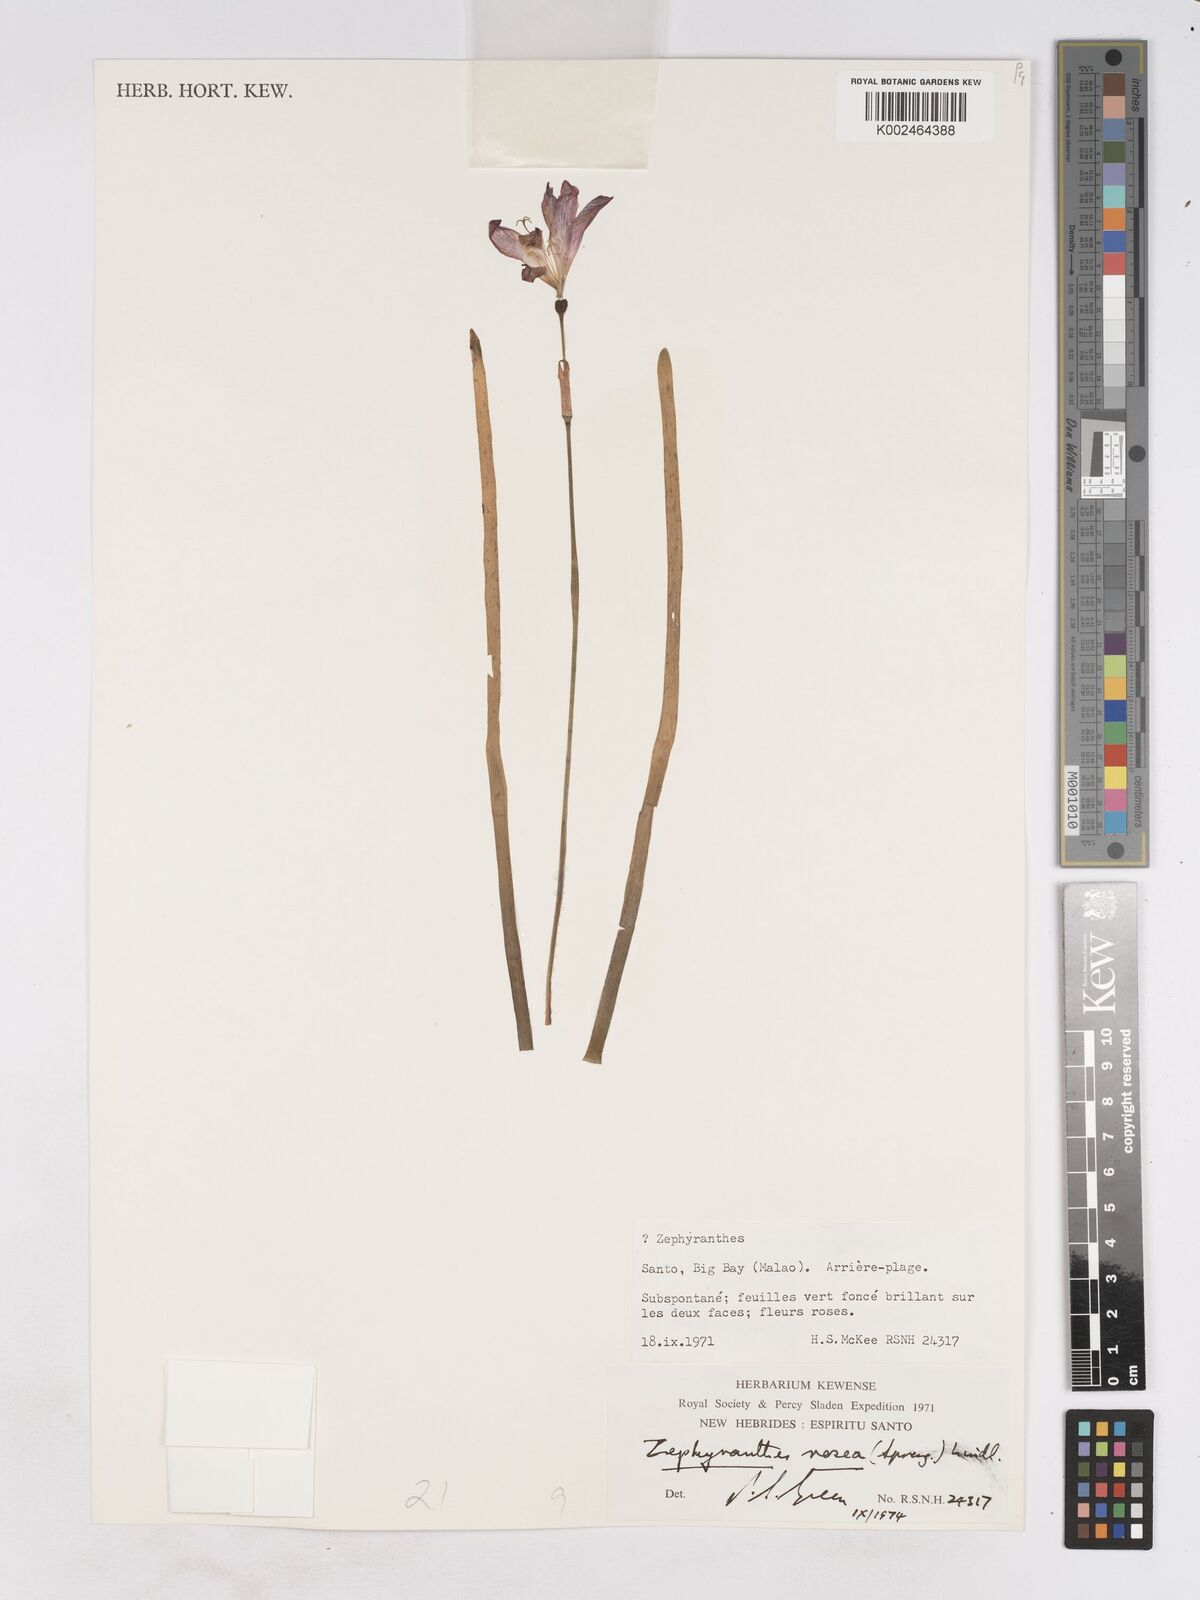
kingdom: Plantae
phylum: Tracheophyta
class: Liliopsida
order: Asparagales
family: Amaryllidaceae
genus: Zephyranthes
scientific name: Zephyranthes rosea
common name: Cuban zephyrlily
